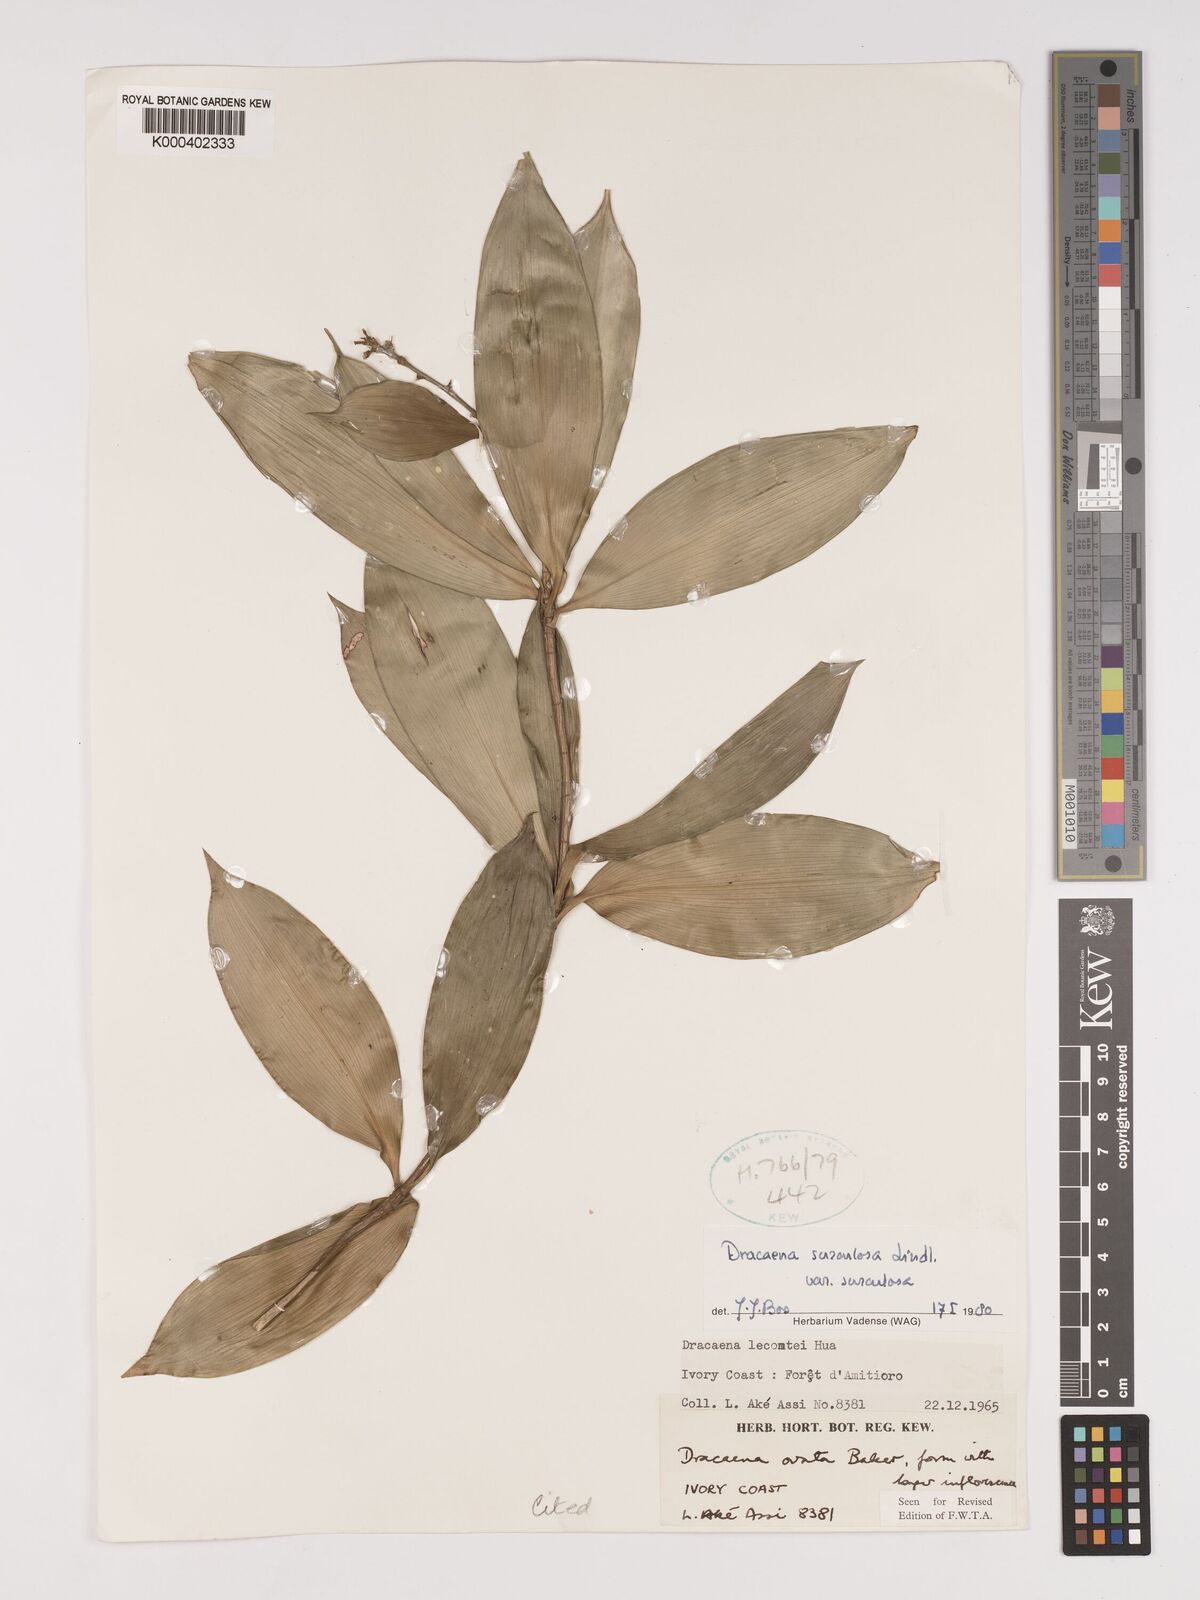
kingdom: Plantae
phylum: Tracheophyta
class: Liliopsida
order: Asparagales
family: Asparagaceae
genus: Dracaena
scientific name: Dracaena surculosa
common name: Spotted dracaena
